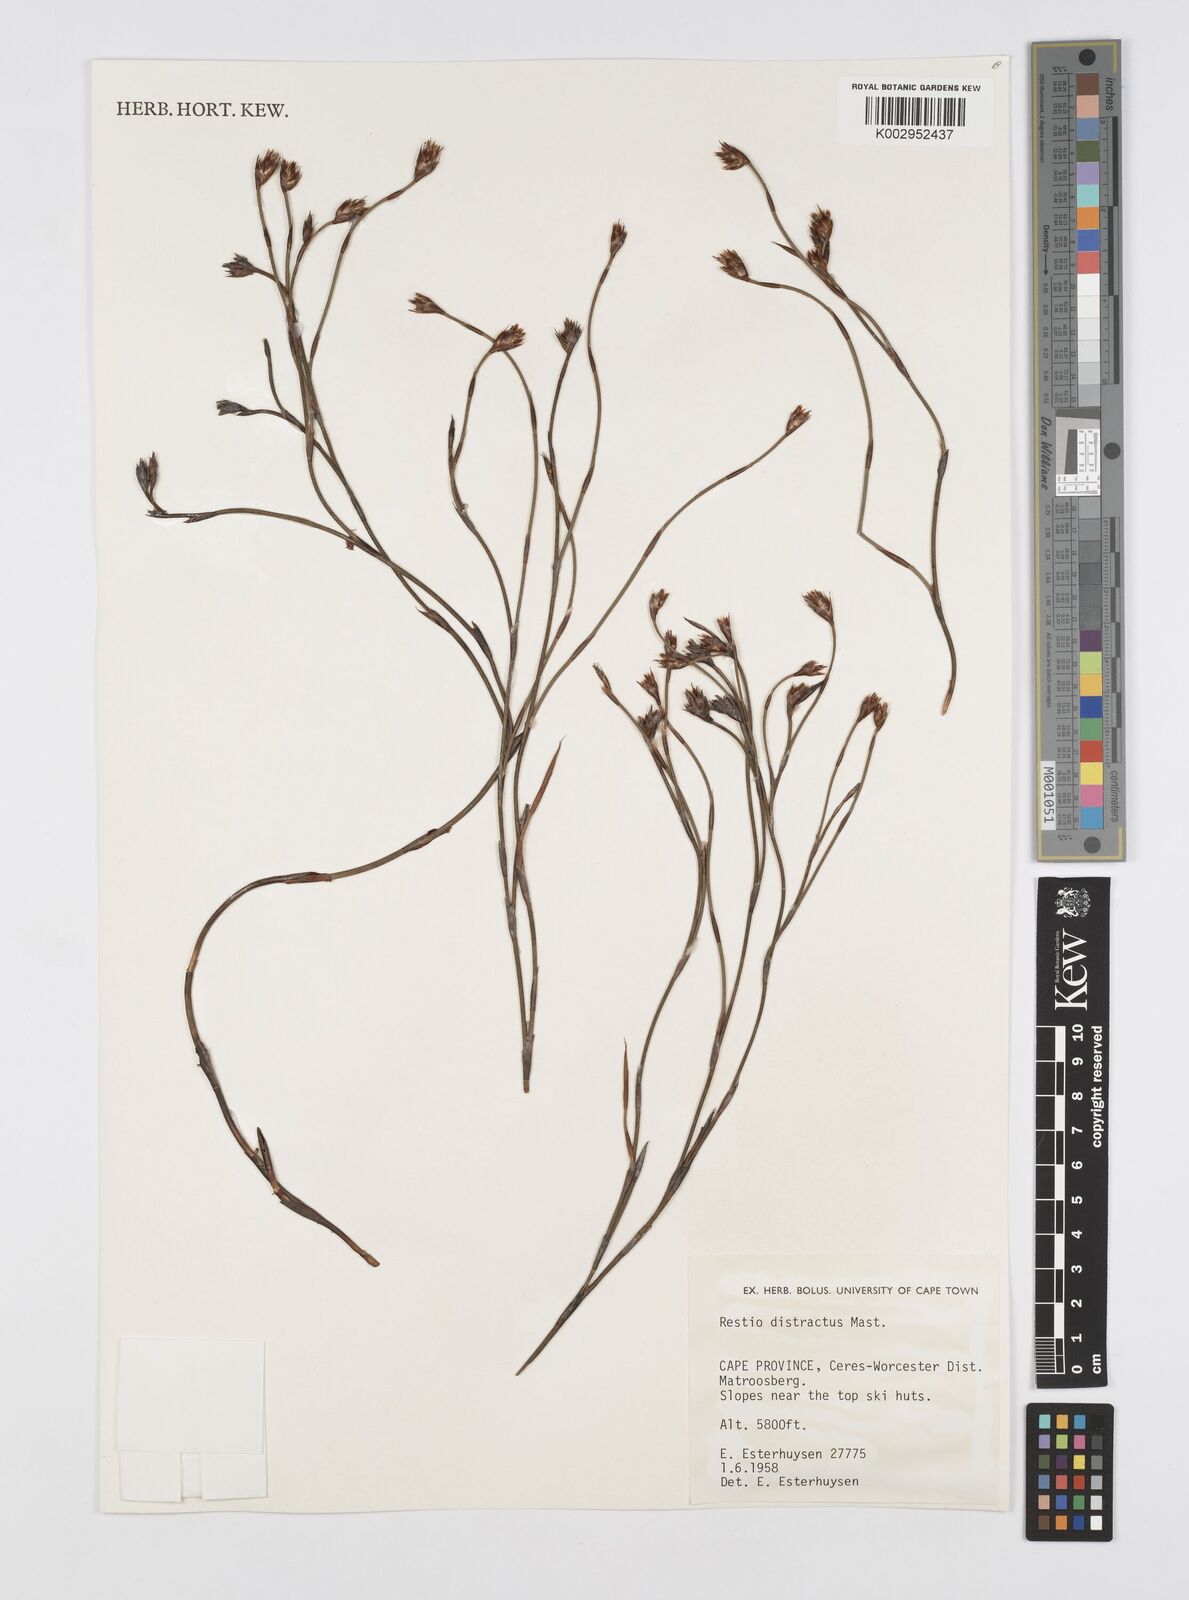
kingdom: Plantae
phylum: Tracheophyta
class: Liliopsida
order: Poales
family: Restionaceae
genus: Restio
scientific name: Restio distractus
